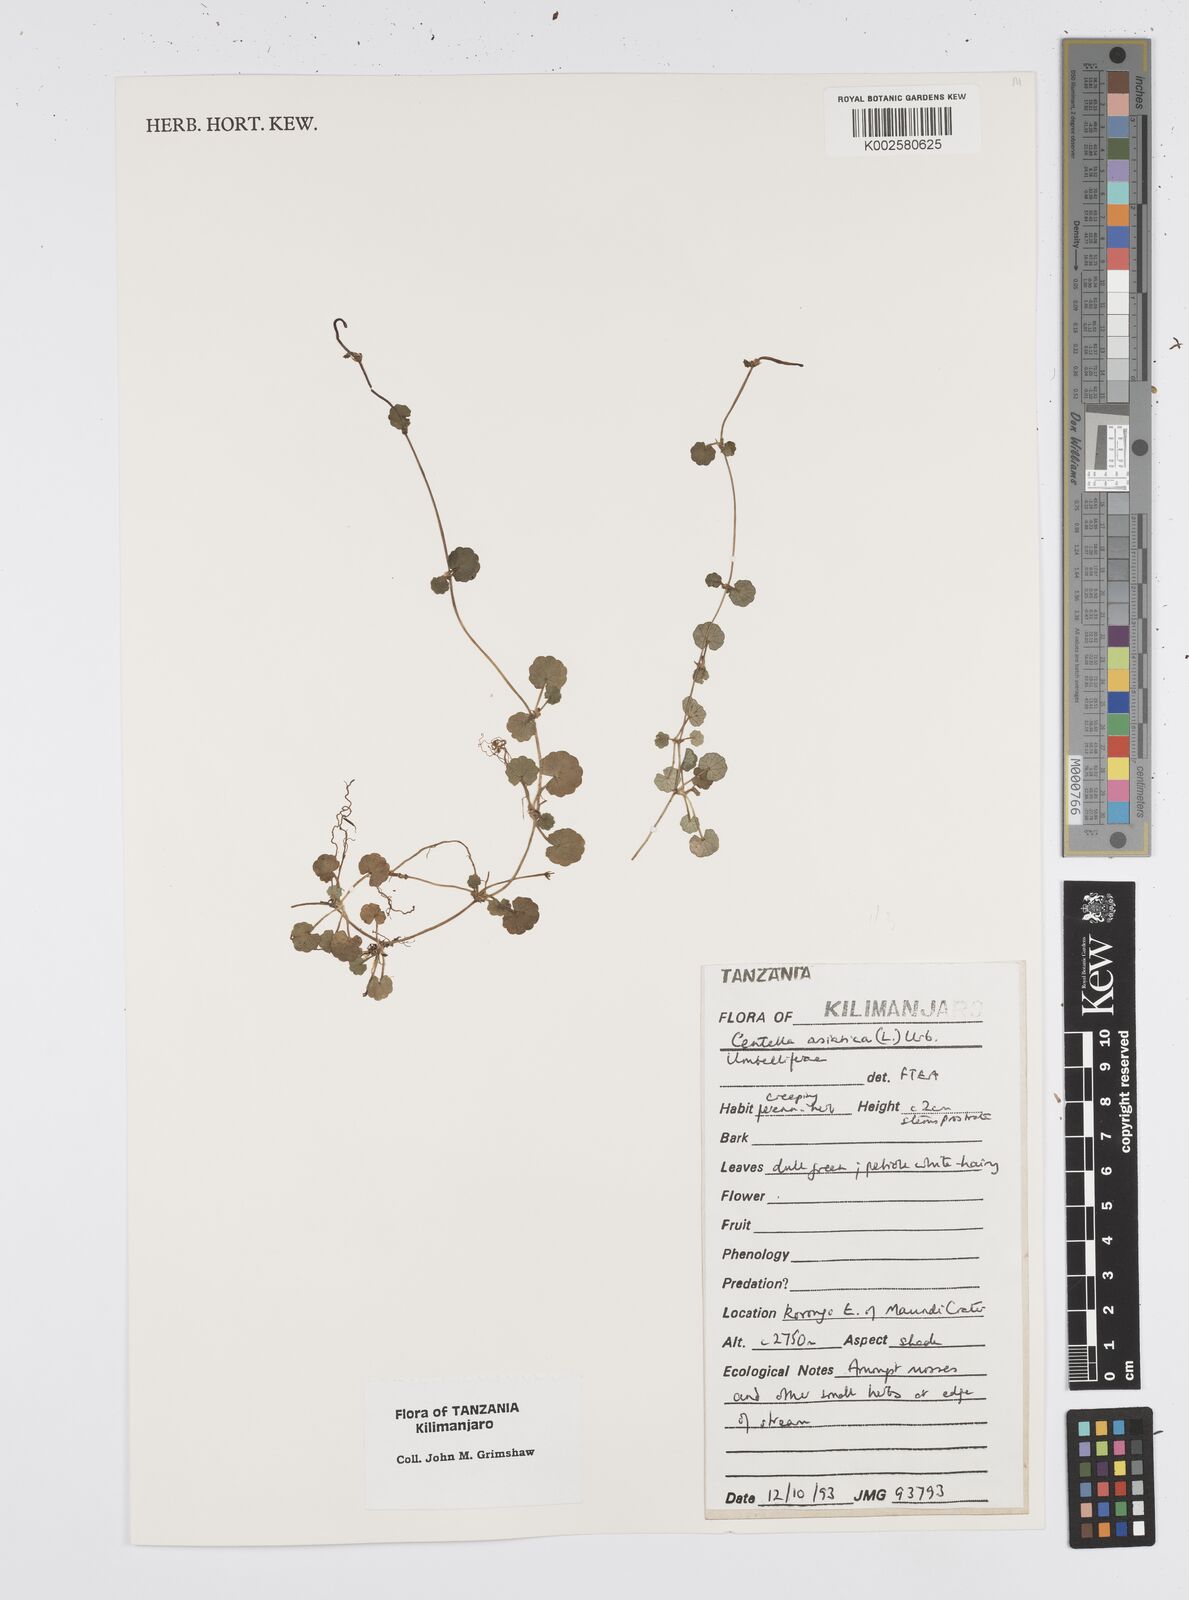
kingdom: Plantae
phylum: Tracheophyta
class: Magnoliopsida
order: Apiales
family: Apiaceae
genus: Centella
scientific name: Centella asiatica
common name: Spadeleaf
